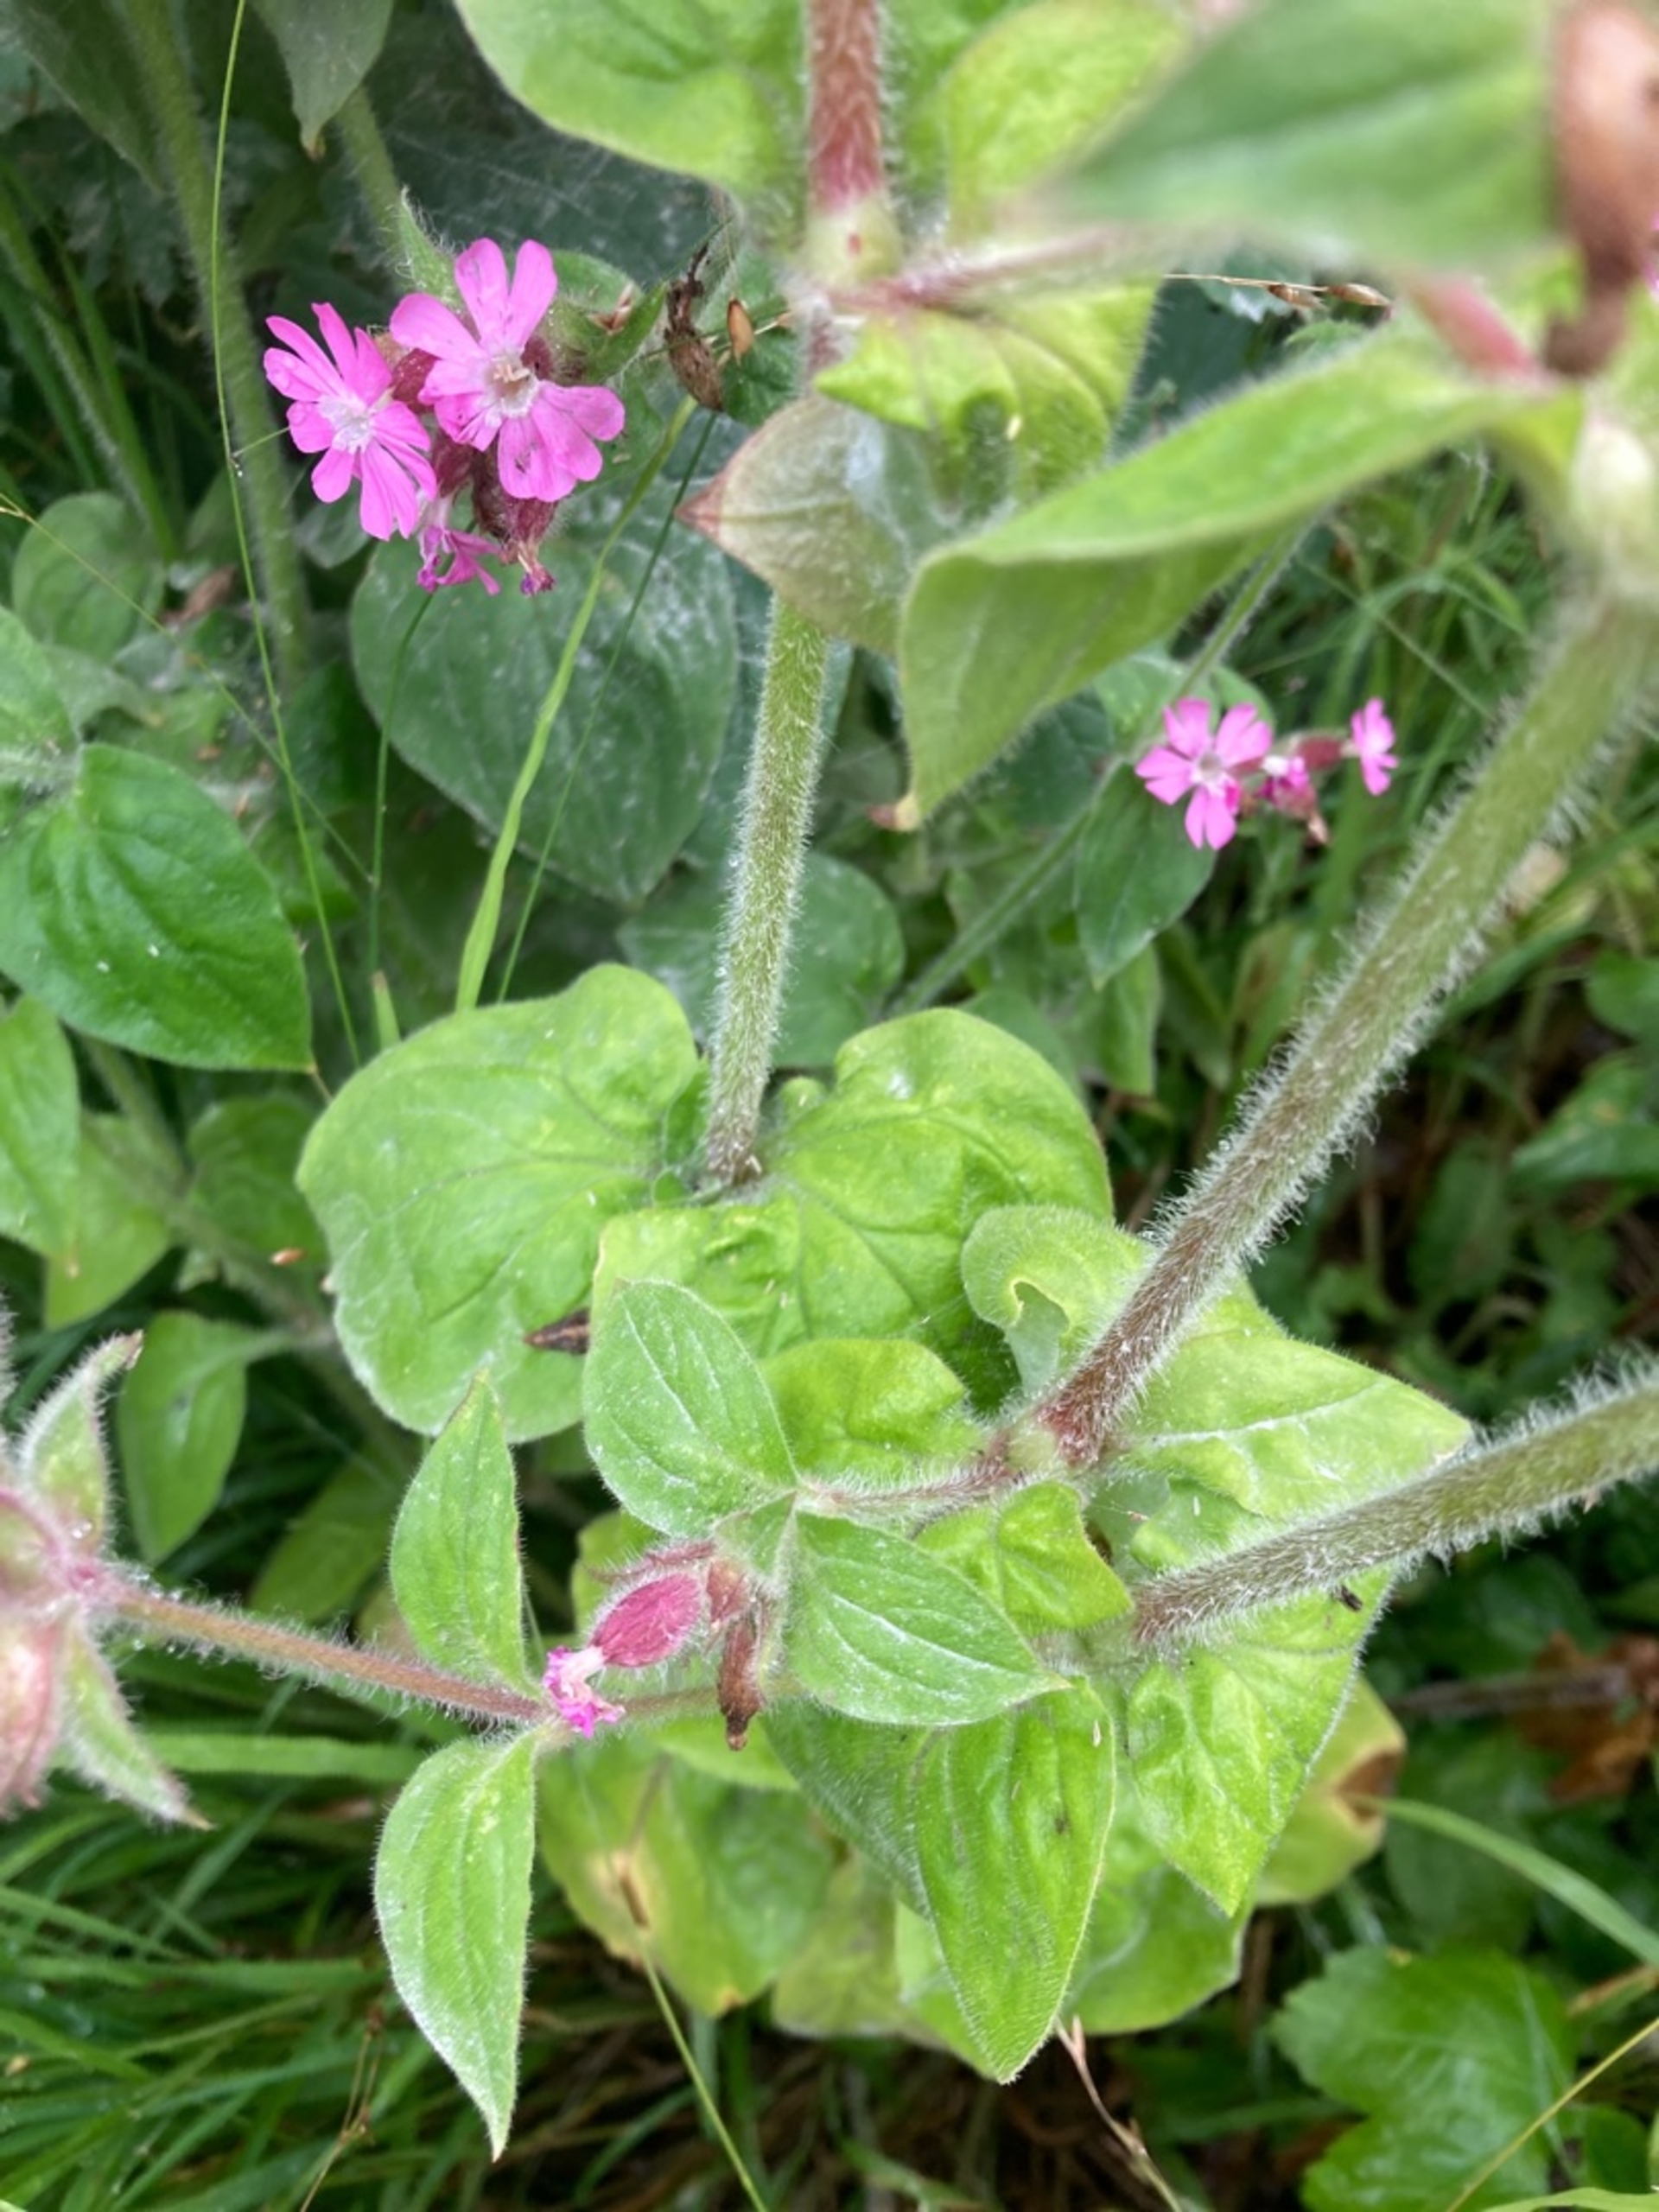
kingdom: Plantae
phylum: Tracheophyta
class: Magnoliopsida
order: Caryophyllales
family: Caryophyllaceae
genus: Silene
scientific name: Silene dioica
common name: Dagpragtstjerne
